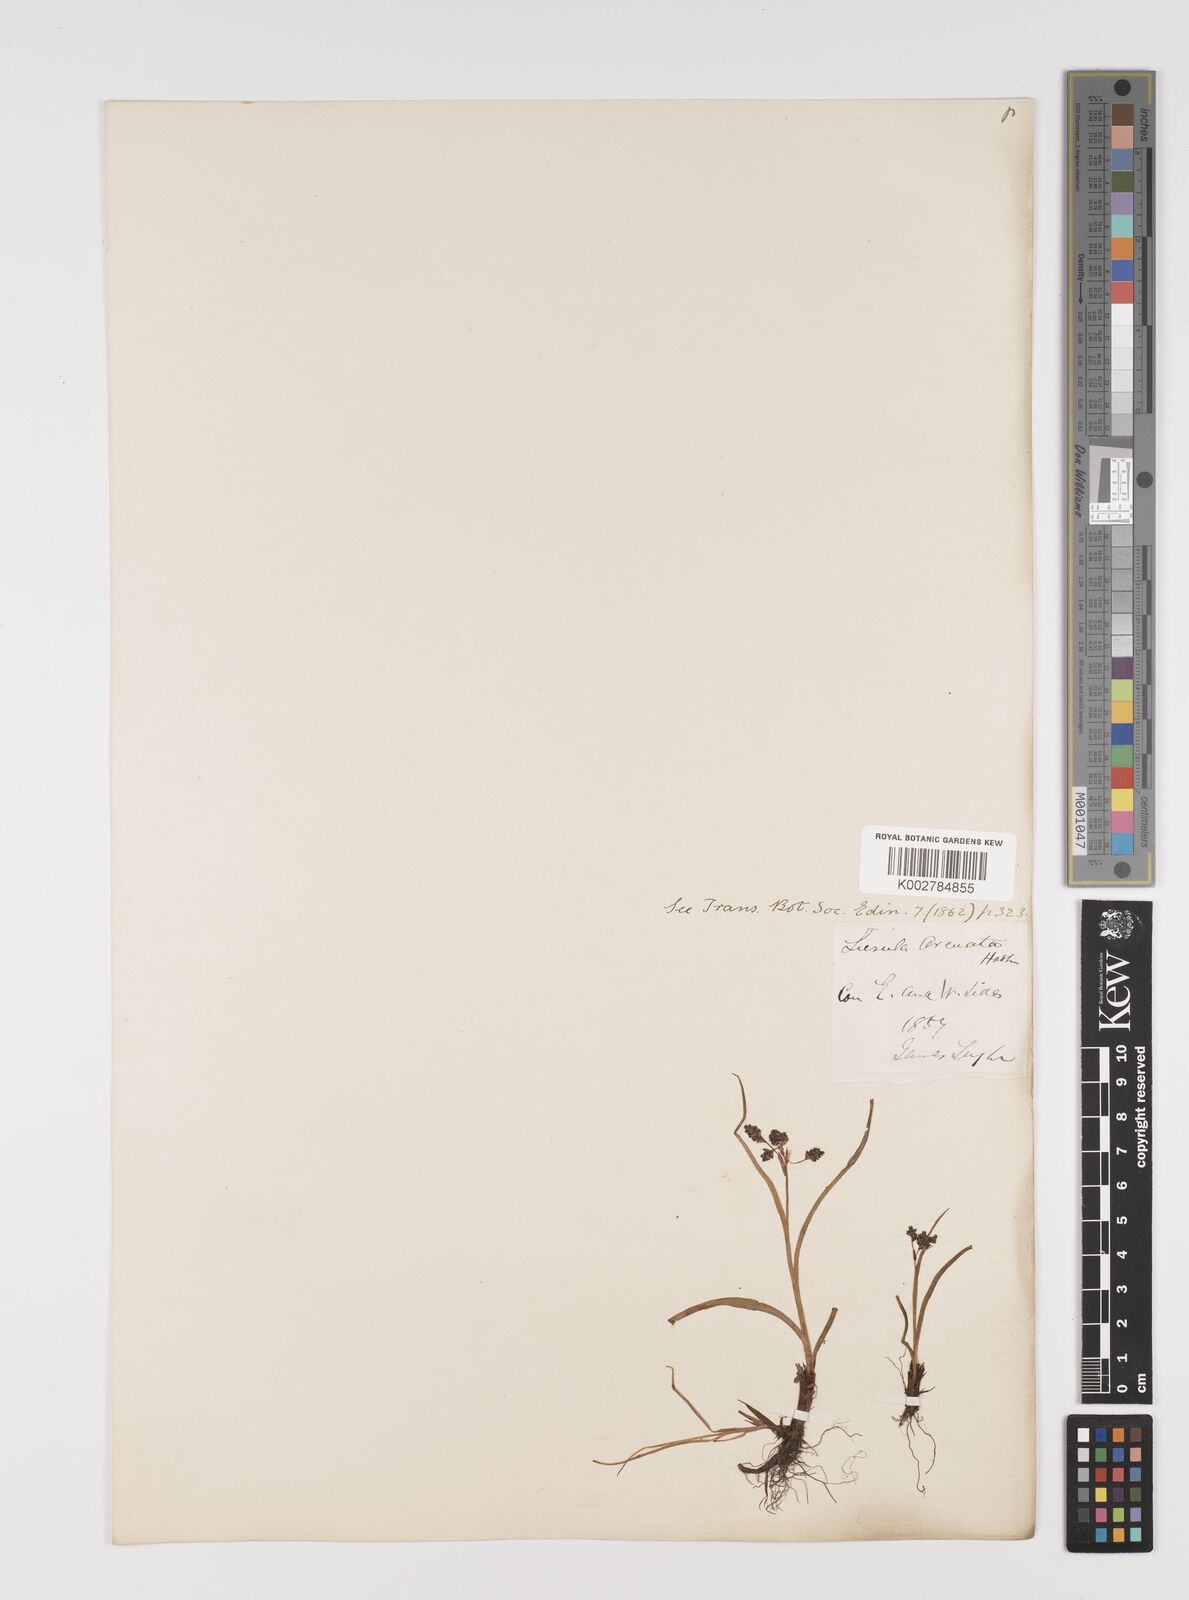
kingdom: Plantae
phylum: Tracheophyta
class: Liliopsida
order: Poales
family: Juncaceae
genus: Luzula
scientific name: Luzula confusa
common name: Northern wood rush
